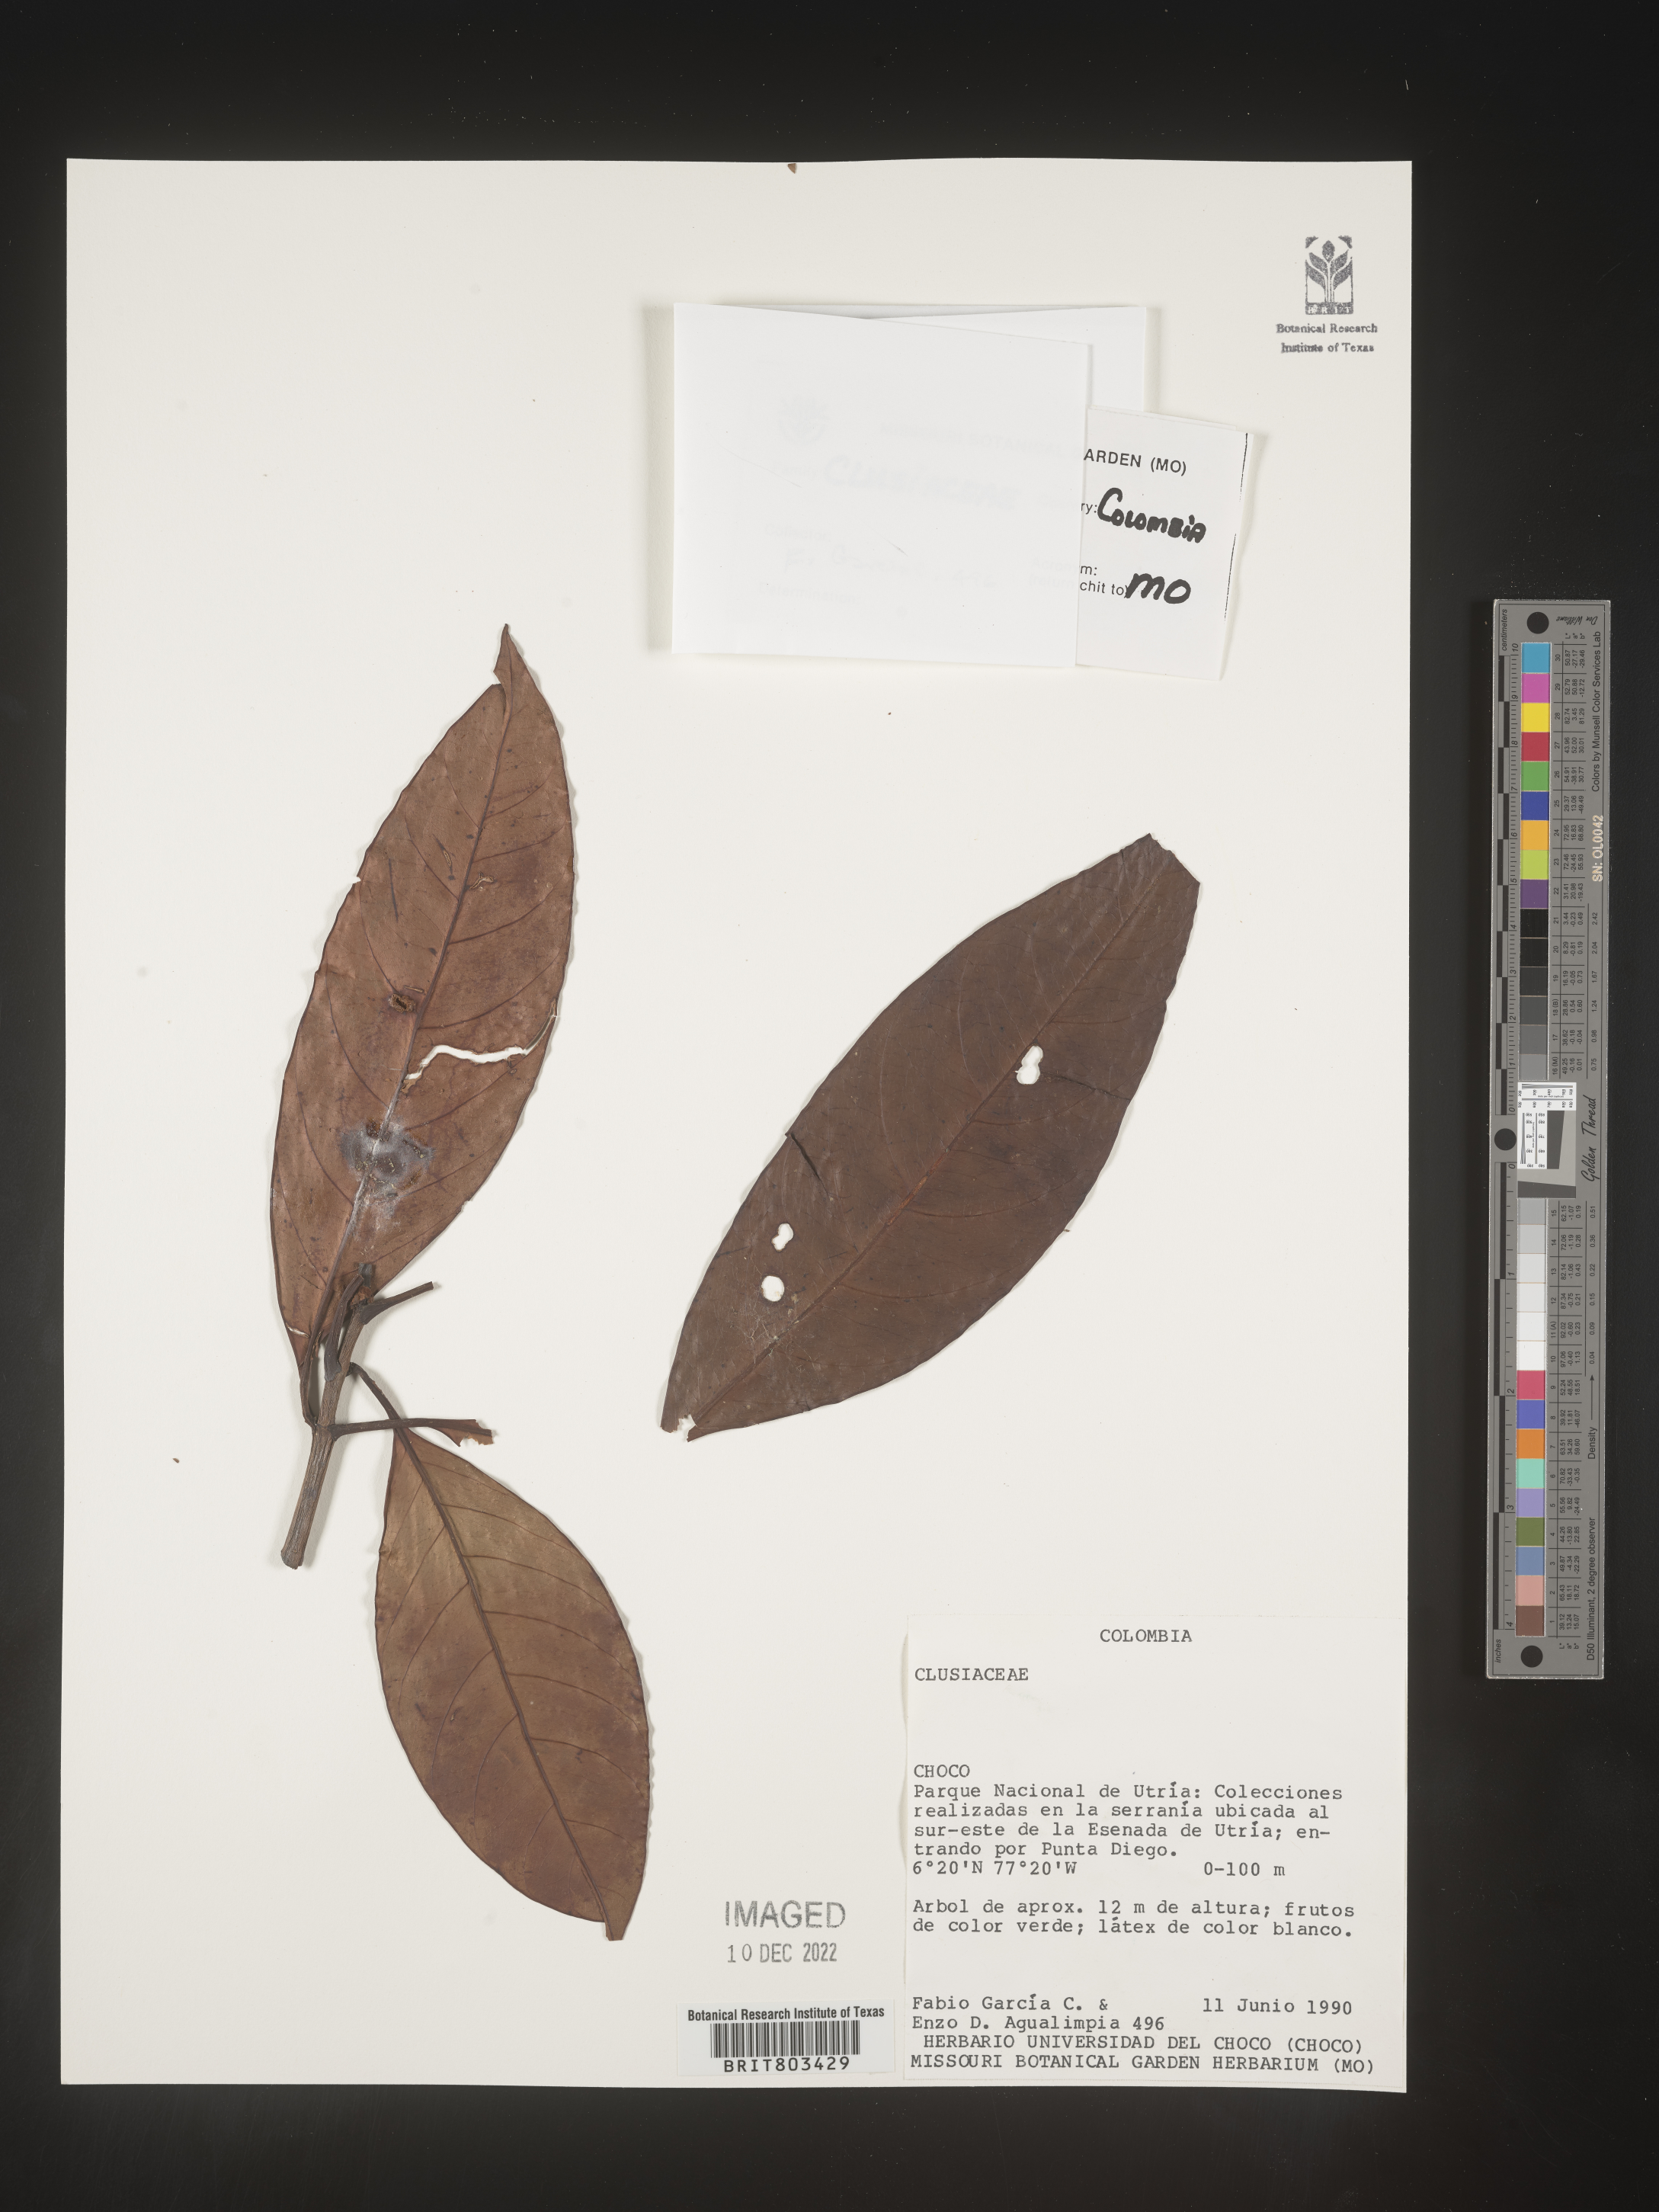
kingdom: Plantae
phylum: Tracheophyta
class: Magnoliopsida
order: Malpighiales
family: Clusiaceae
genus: Tovomita
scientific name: Tovomita
